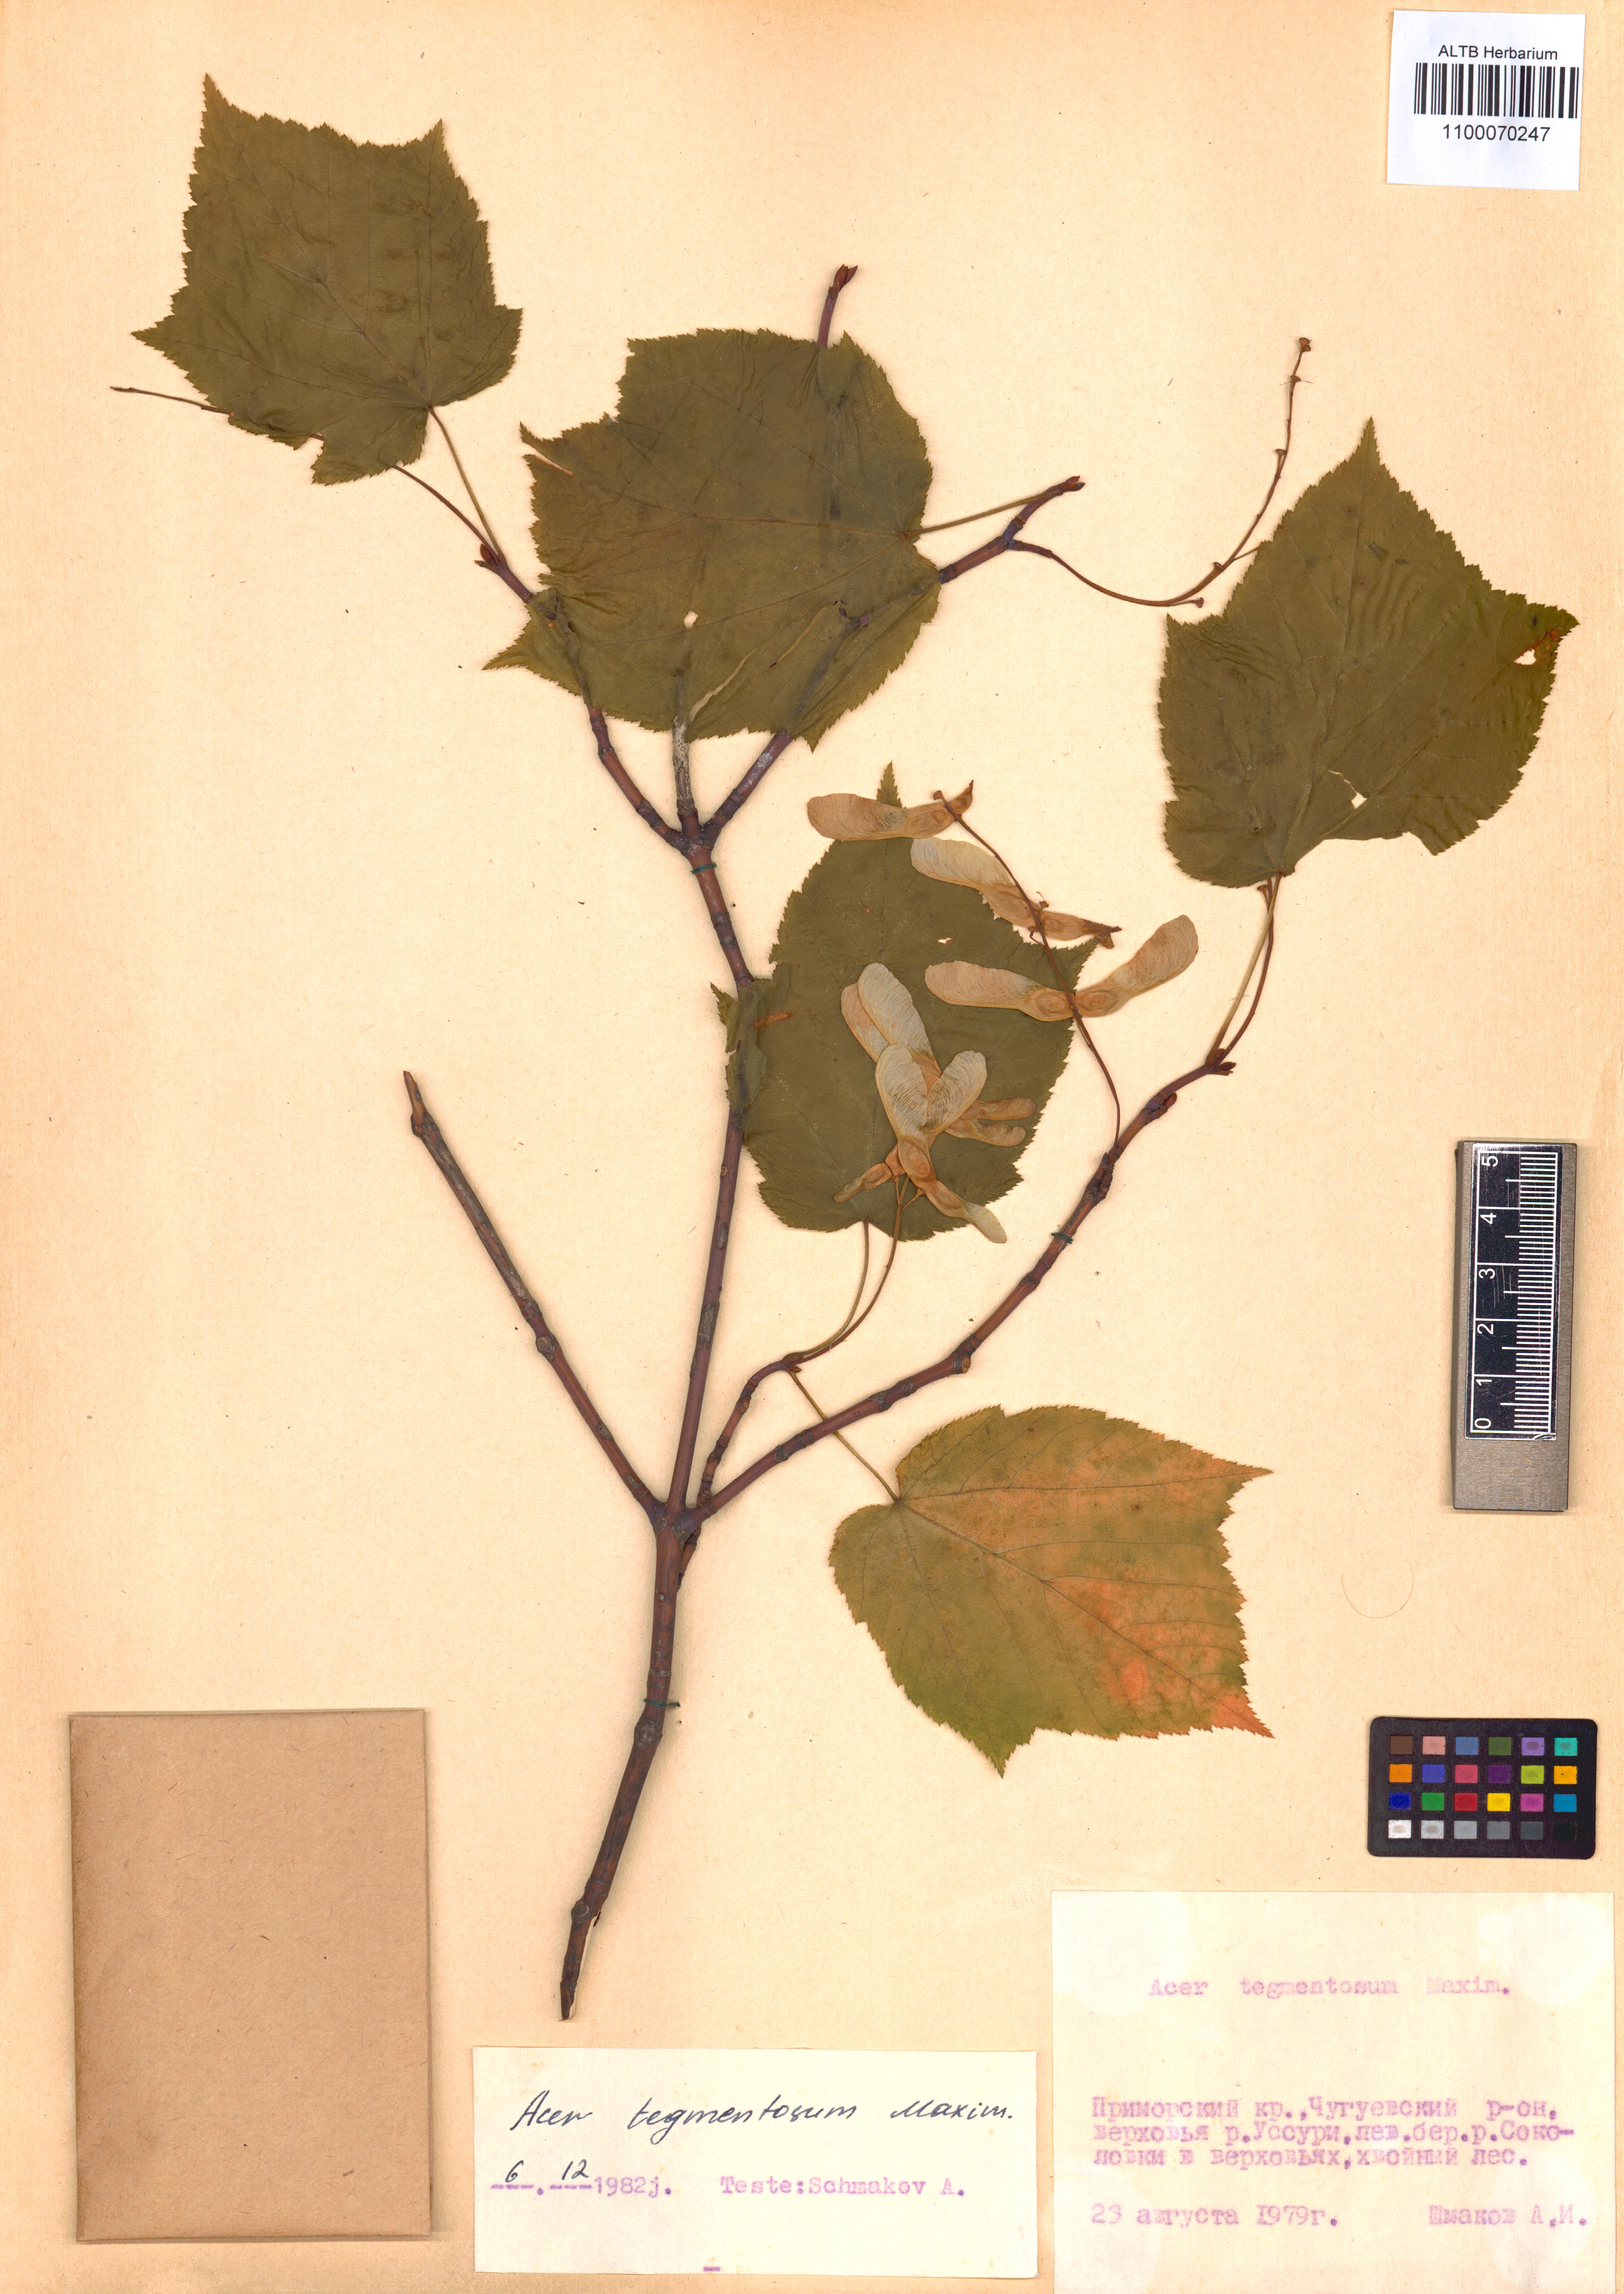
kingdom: Plantae
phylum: Tracheophyta
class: Magnoliopsida
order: Sapindales
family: Sapindaceae
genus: Acer
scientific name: Acer tegmentosum
